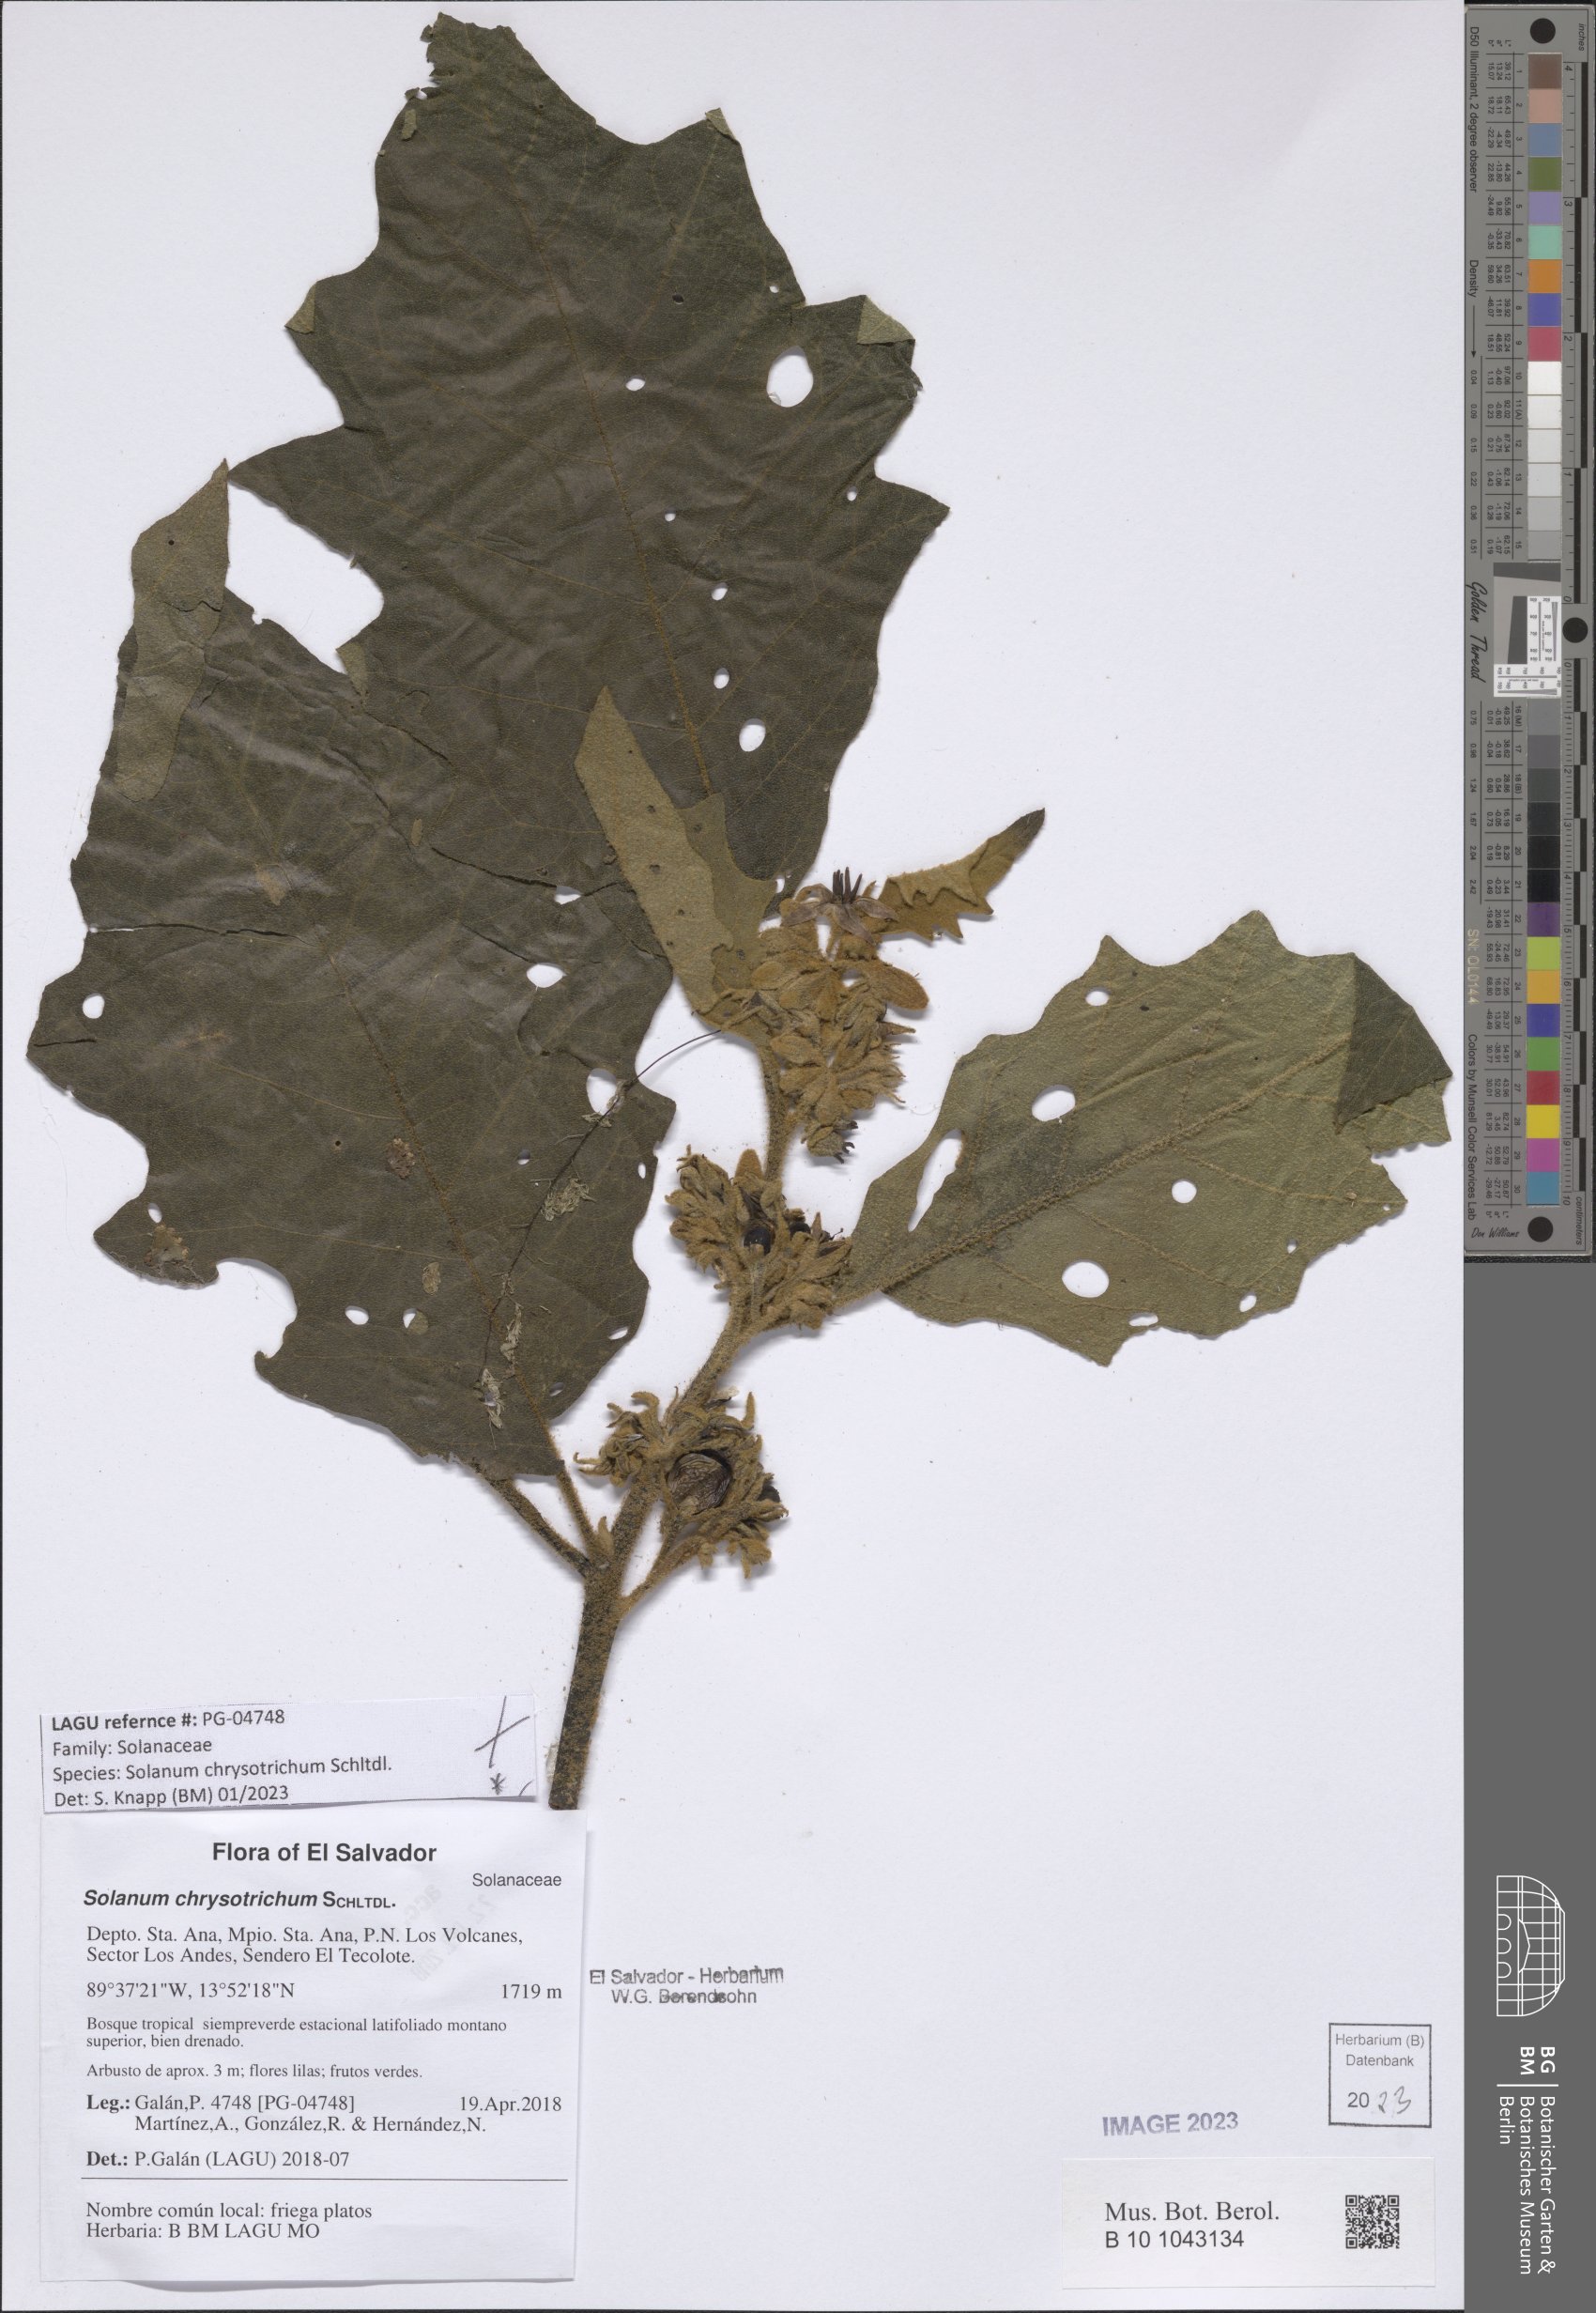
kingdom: Plantae
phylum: Tracheophyta
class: Magnoliopsida
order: Solanales
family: Solanaceae
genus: Solanum
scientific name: Solanum chrysotrichum
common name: Nightshade
